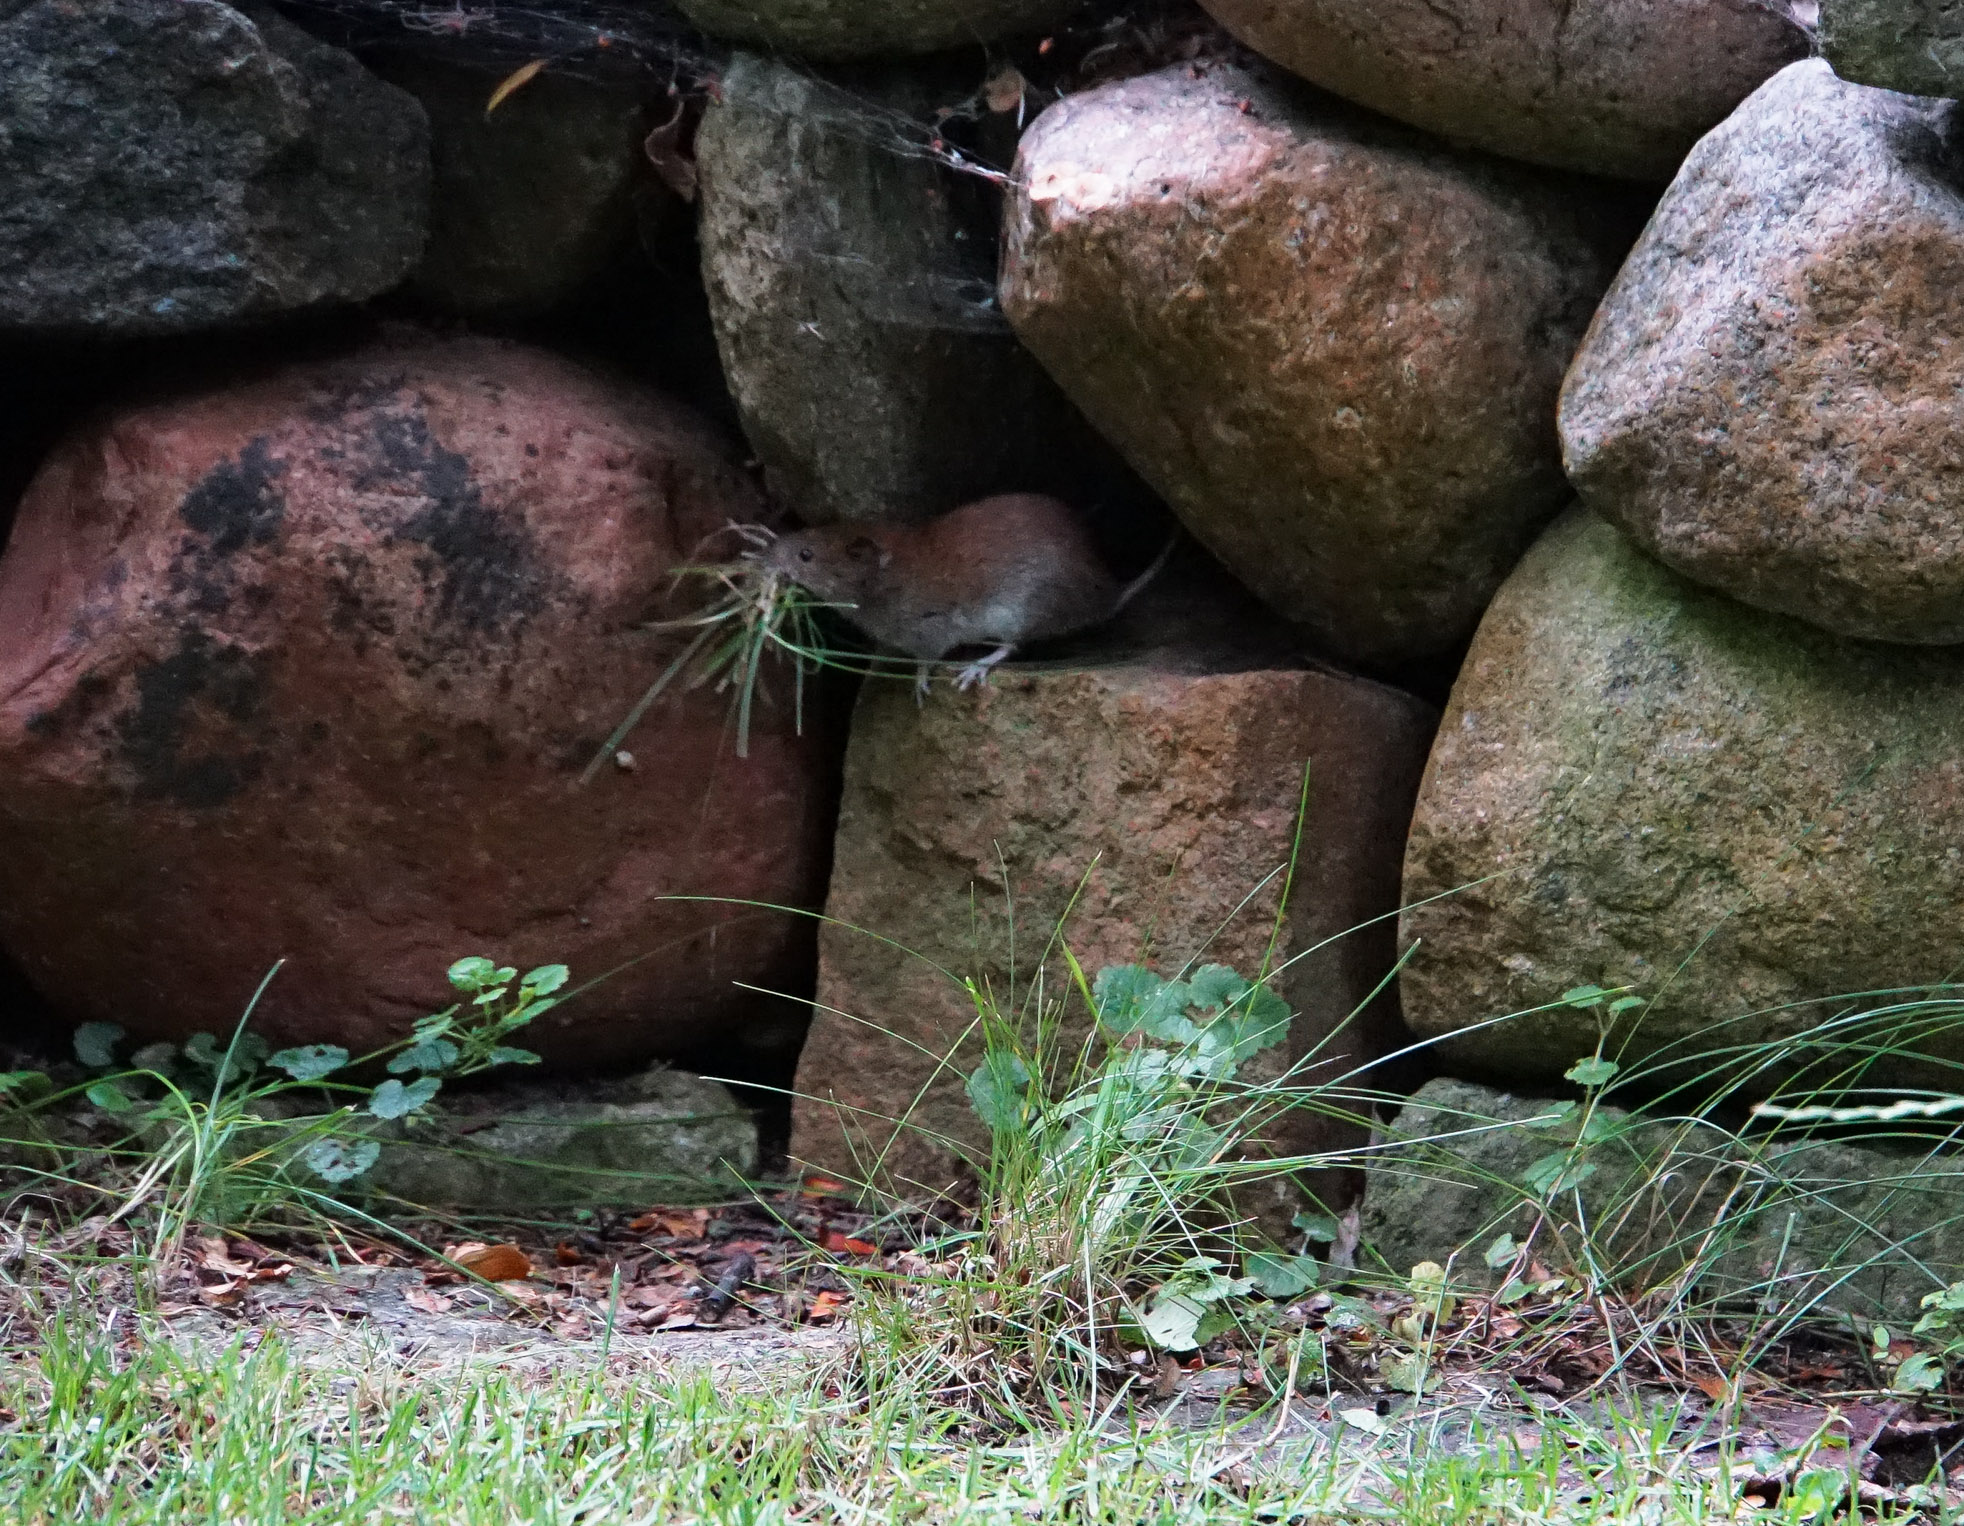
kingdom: Animalia
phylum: Chordata
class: Mammalia
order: Rodentia
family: Cricetidae
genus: Myodes
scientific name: Myodes glareolus
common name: Bank vole
